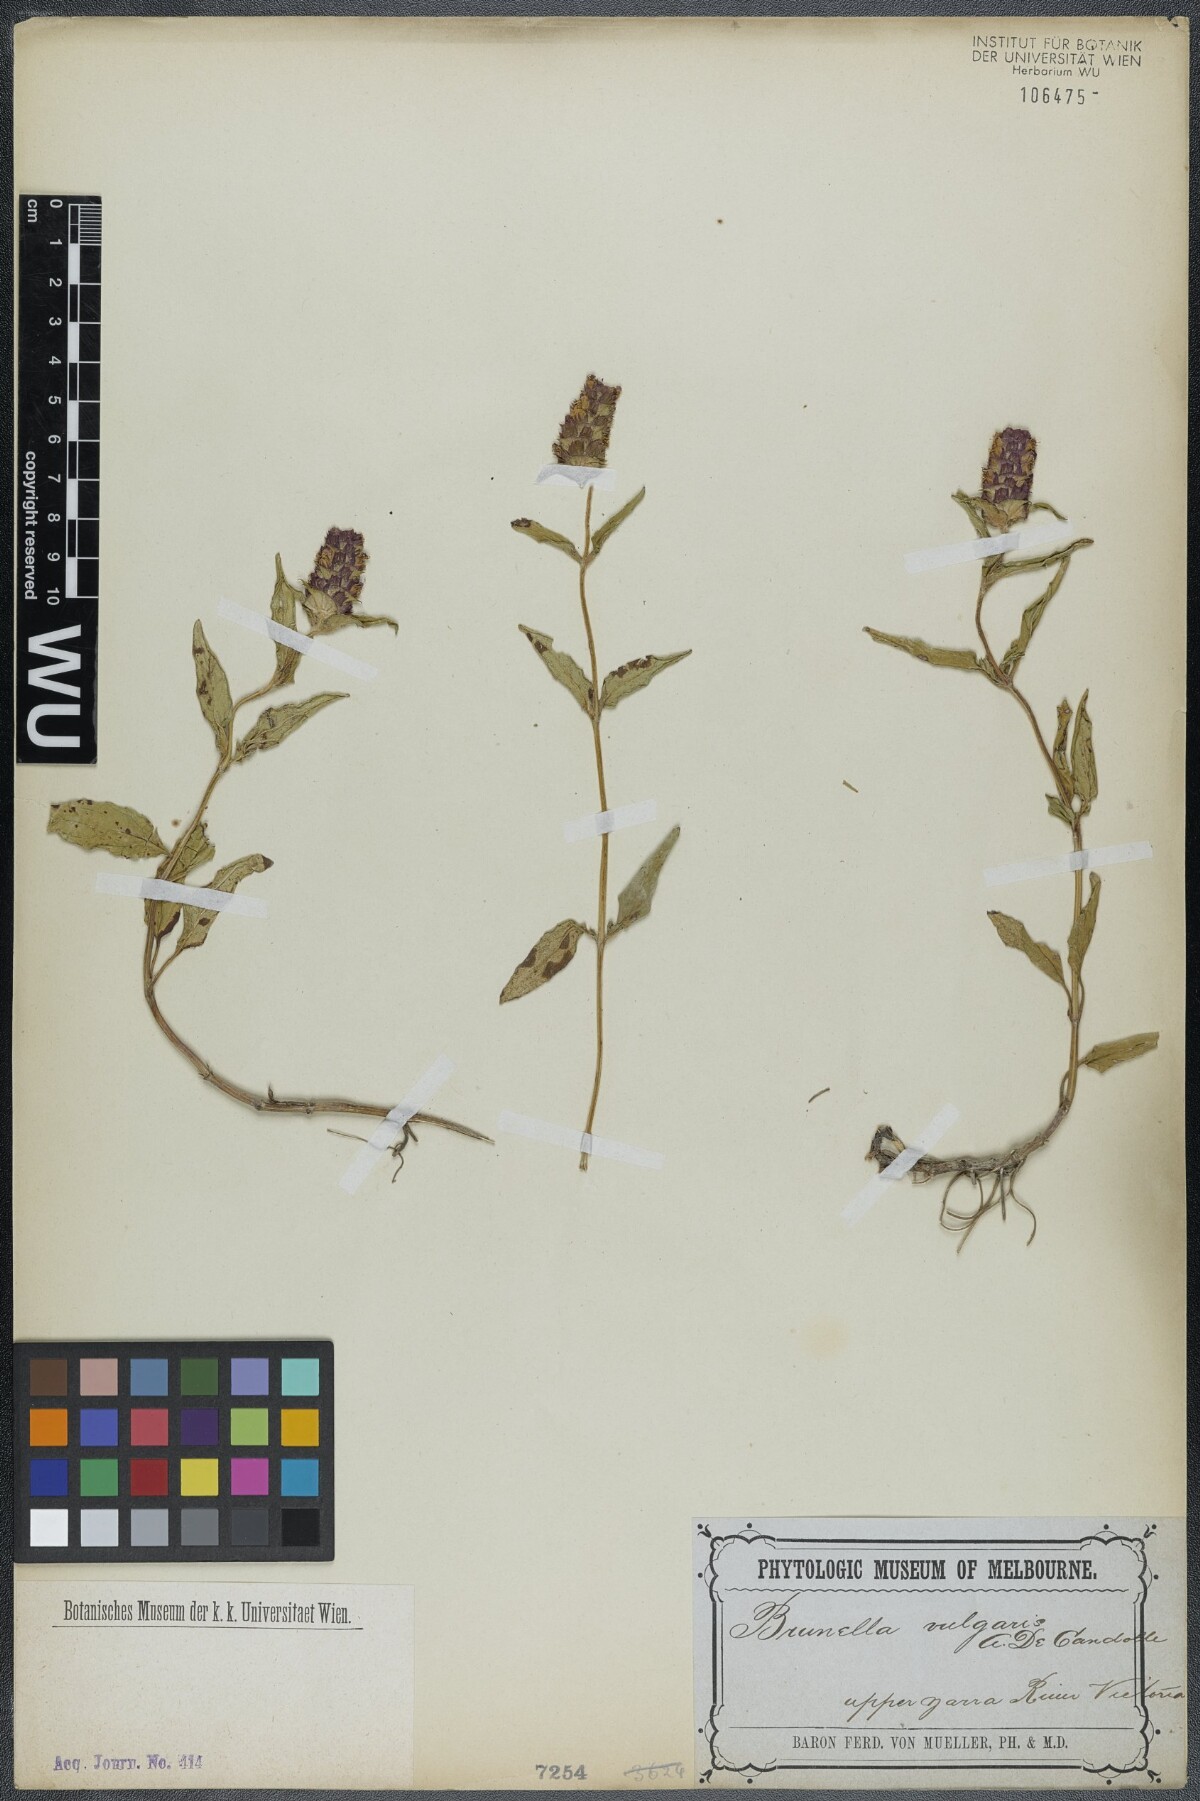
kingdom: Plantae
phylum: Tracheophyta
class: Magnoliopsida
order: Lamiales
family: Lamiaceae
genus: Prunella
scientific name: Prunella vulgaris
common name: Heal-all
